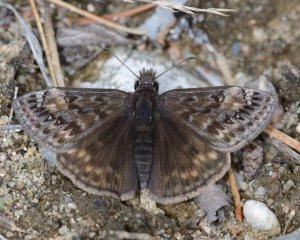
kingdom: Animalia
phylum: Arthropoda
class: Insecta
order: Lepidoptera
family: Hesperiidae
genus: Gesta
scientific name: Gesta
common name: Juvenal's Duskywing
